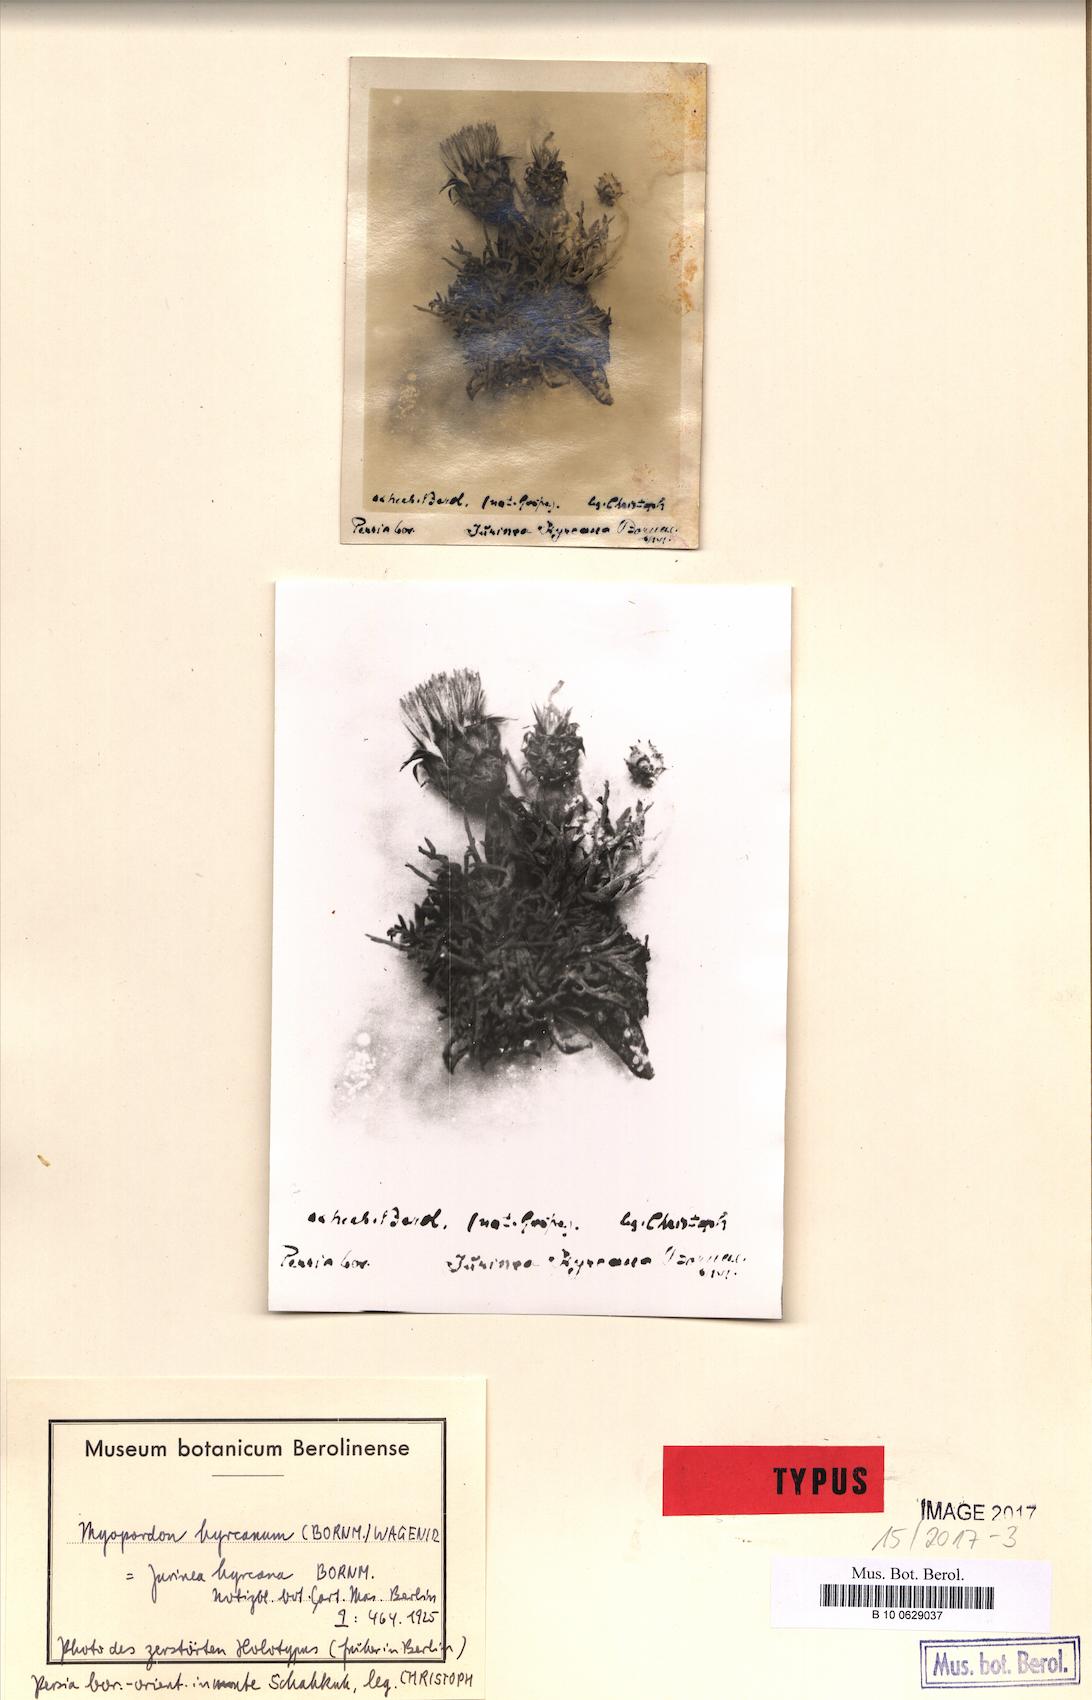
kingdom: Plantae
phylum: Tracheophyta
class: Magnoliopsida
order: Asterales
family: Asteraceae
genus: Myopordon
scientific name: Myopordon hyrcanum
